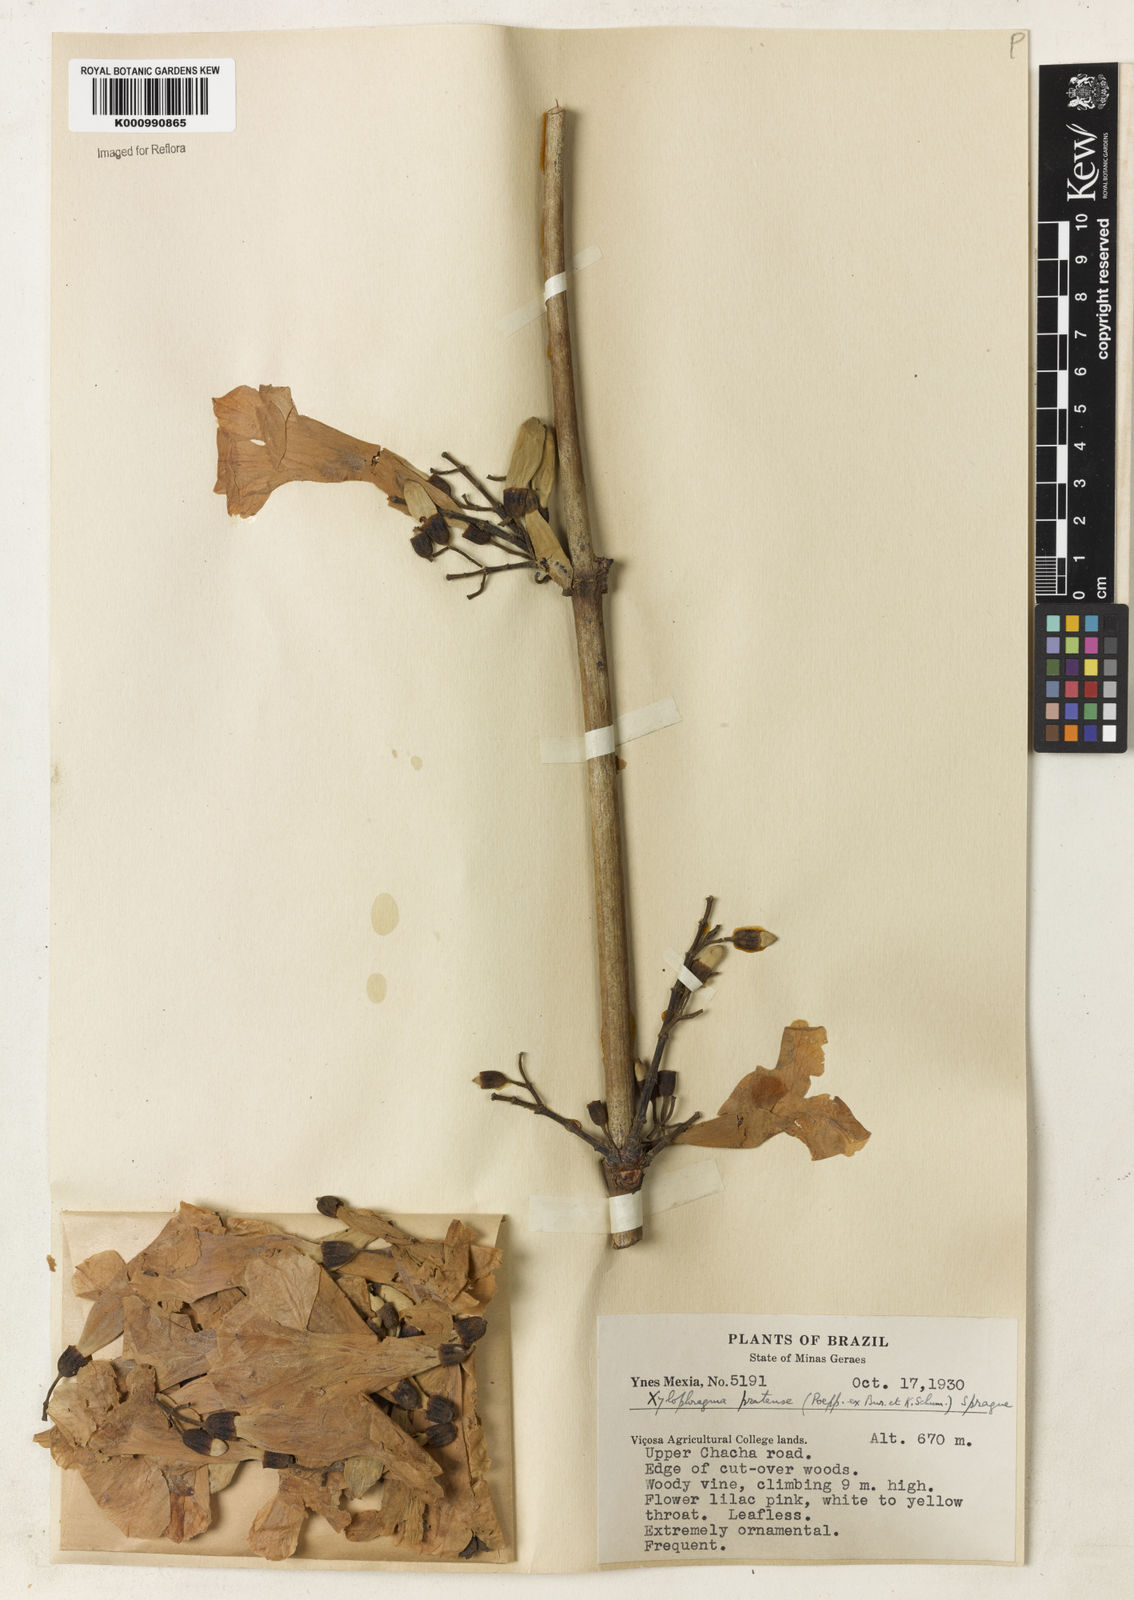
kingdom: Plantae
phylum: Tracheophyta
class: Magnoliopsida
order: Lamiales
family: Bignoniaceae
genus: Xylophragma
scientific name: Xylophragma pratense
